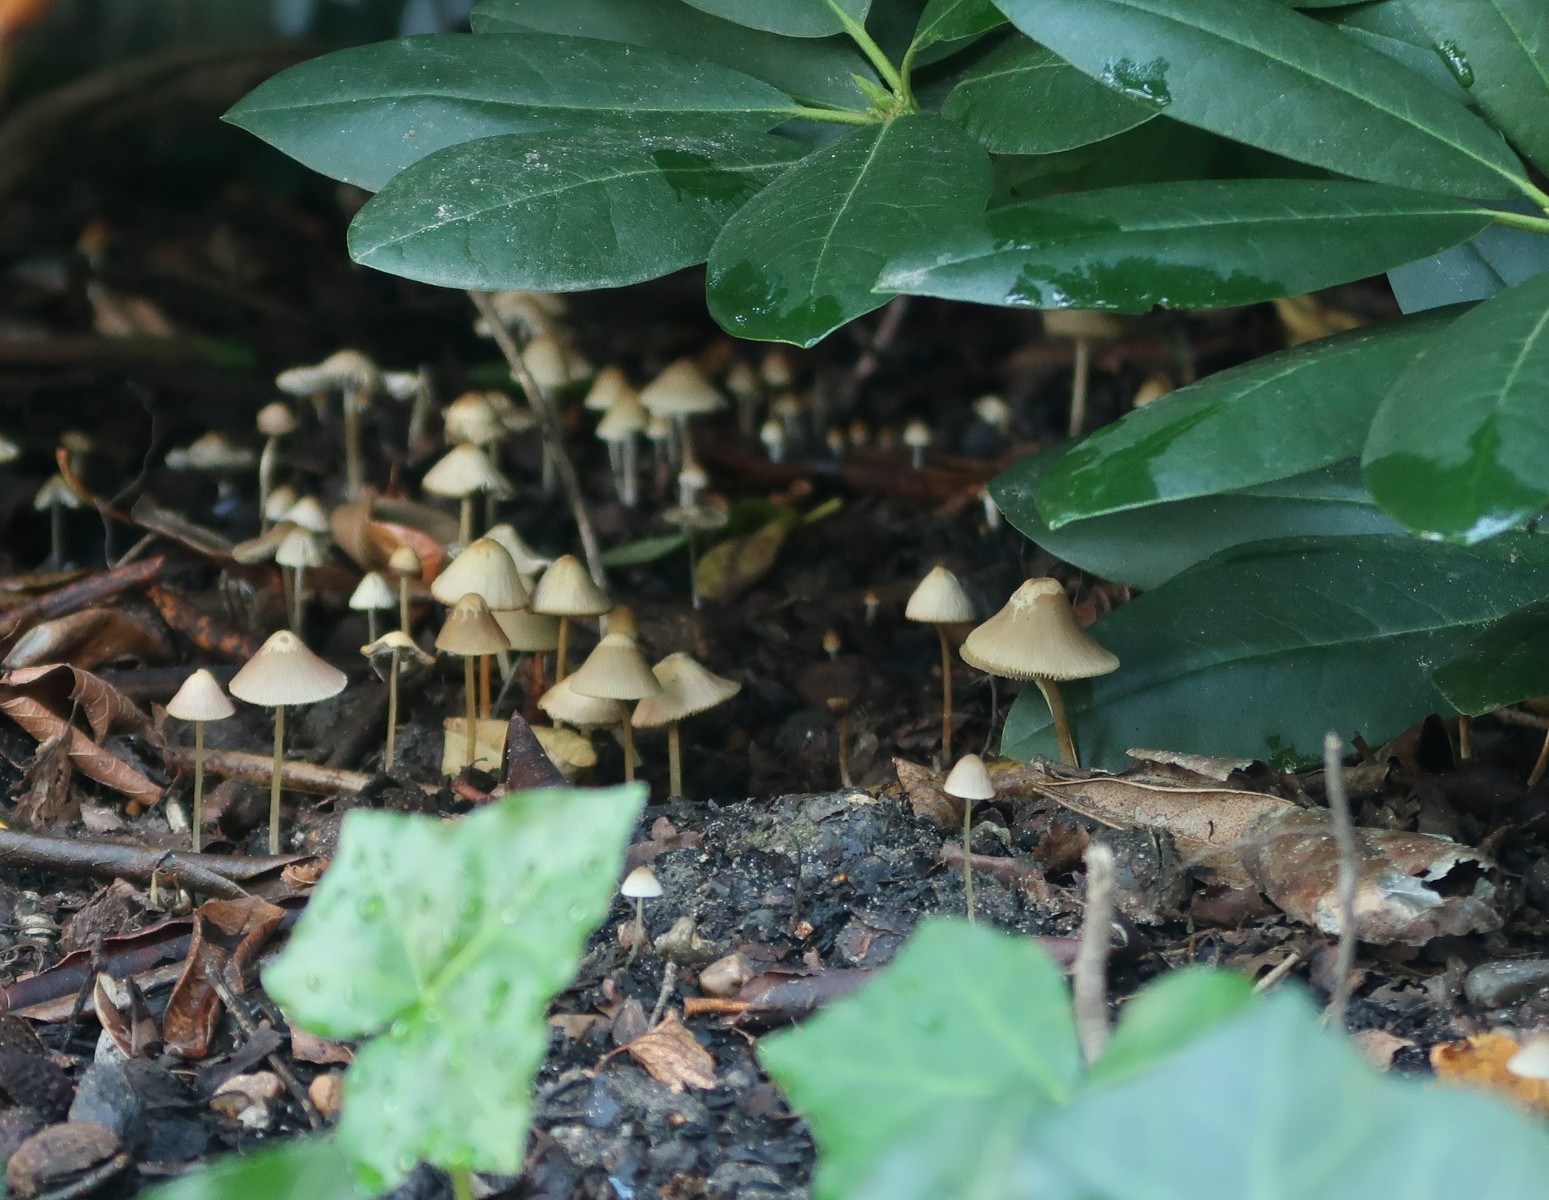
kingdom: Fungi
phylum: Basidiomycota
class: Agaricomycetes
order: Agaricales
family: Psathyrellaceae
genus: Psathyrella
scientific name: Psathyrella
